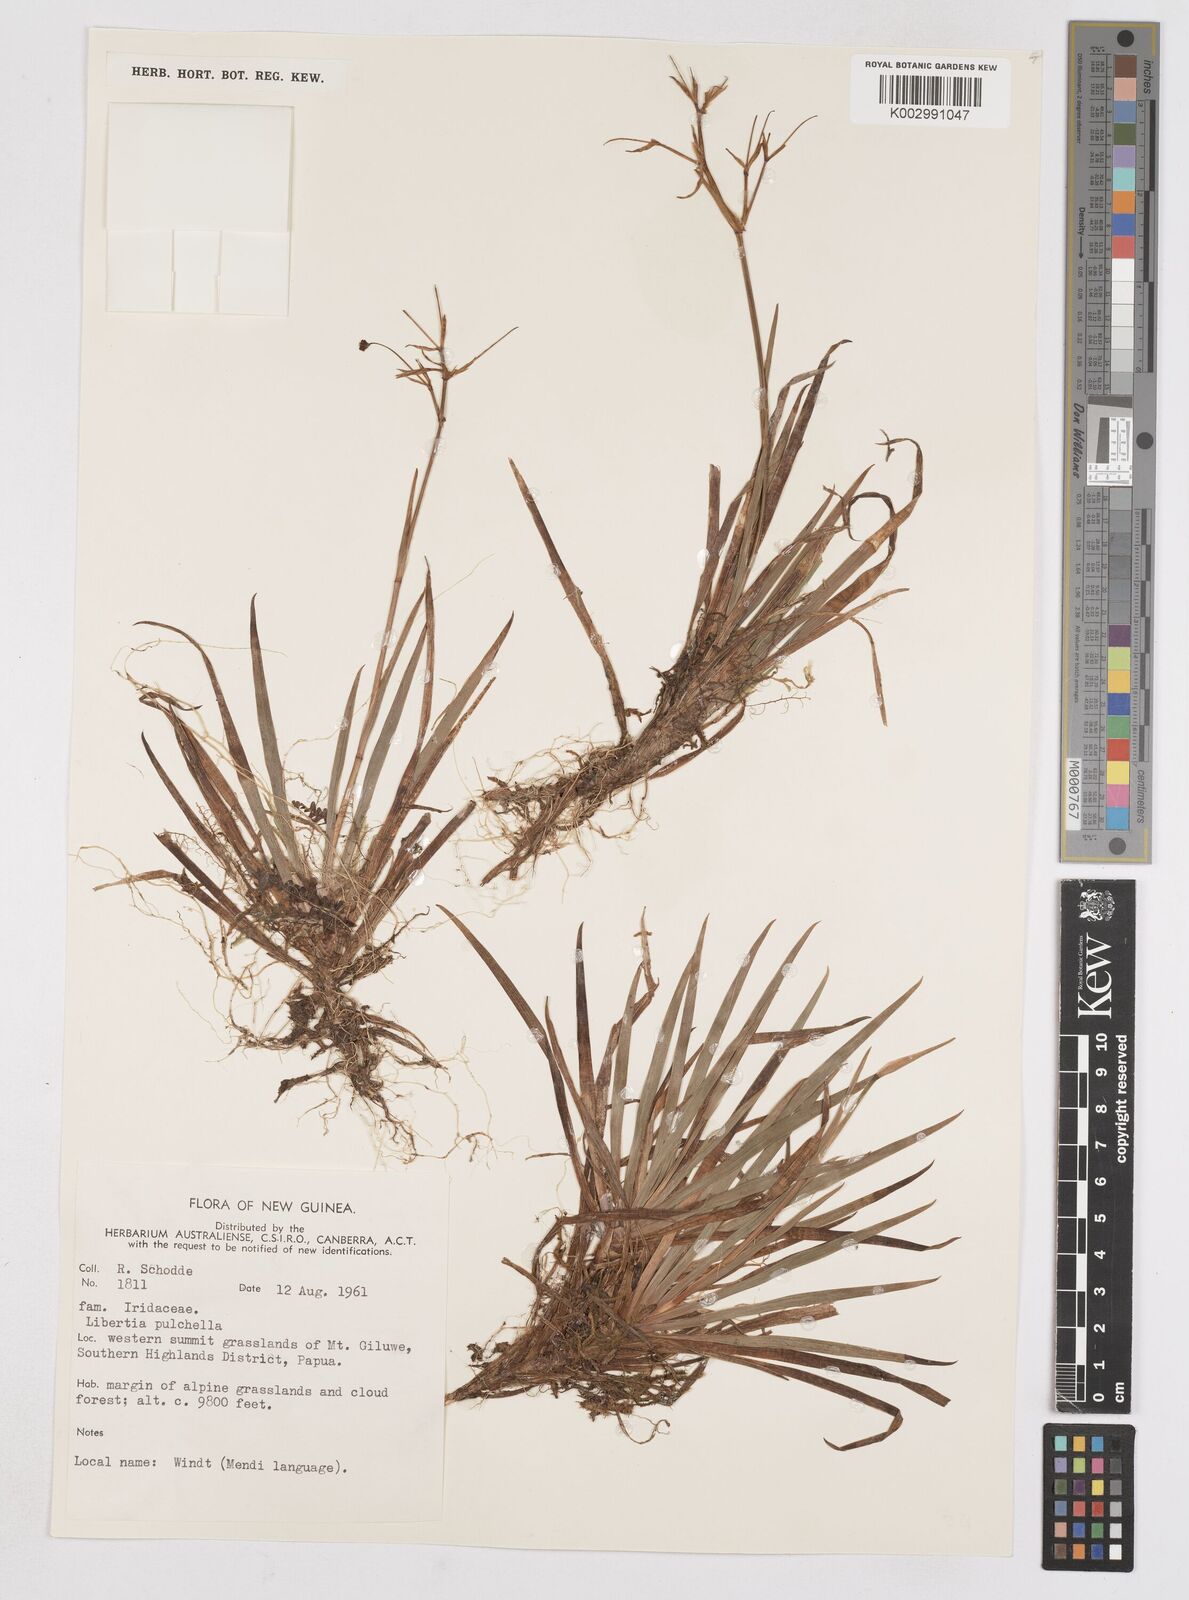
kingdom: Plantae
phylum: Tracheophyta
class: Liliopsida
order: Asparagales
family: Iridaceae
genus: Libertia
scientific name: Libertia pulchella
